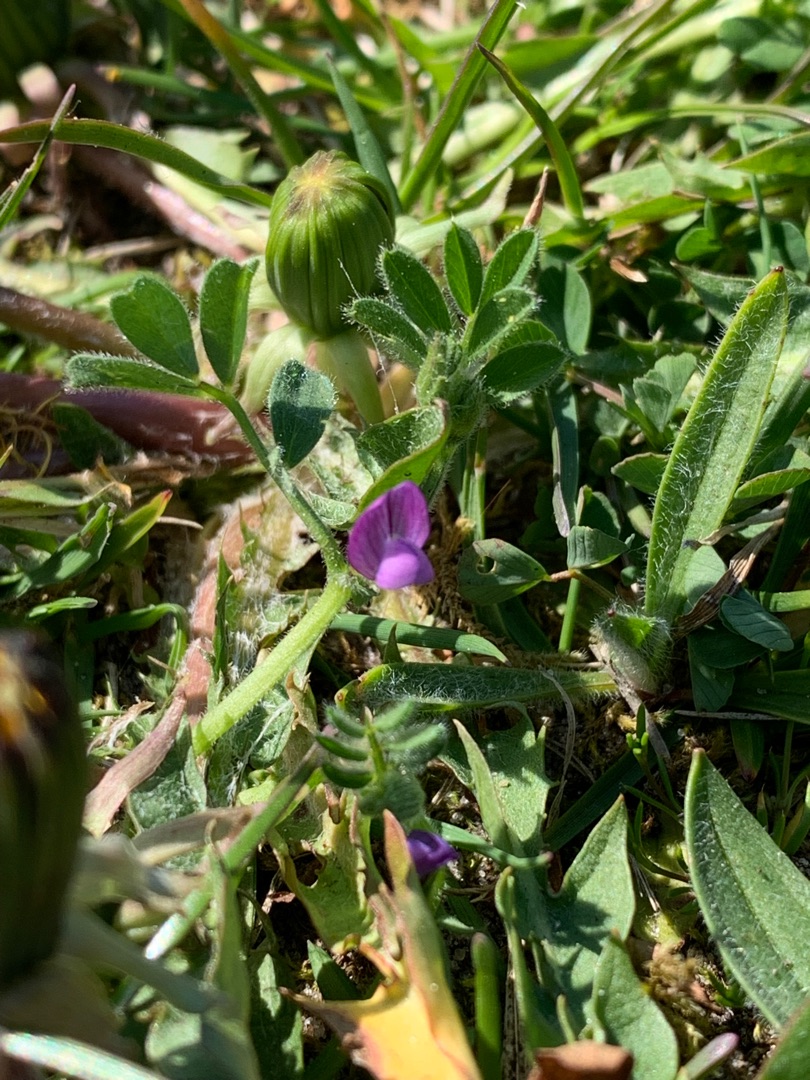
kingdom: Plantae
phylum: Tracheophyta
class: Magnoliopsida
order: Fabales
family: Fabaceae
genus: Vicia
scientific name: Vicia lathyroides
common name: Vår-vikke
